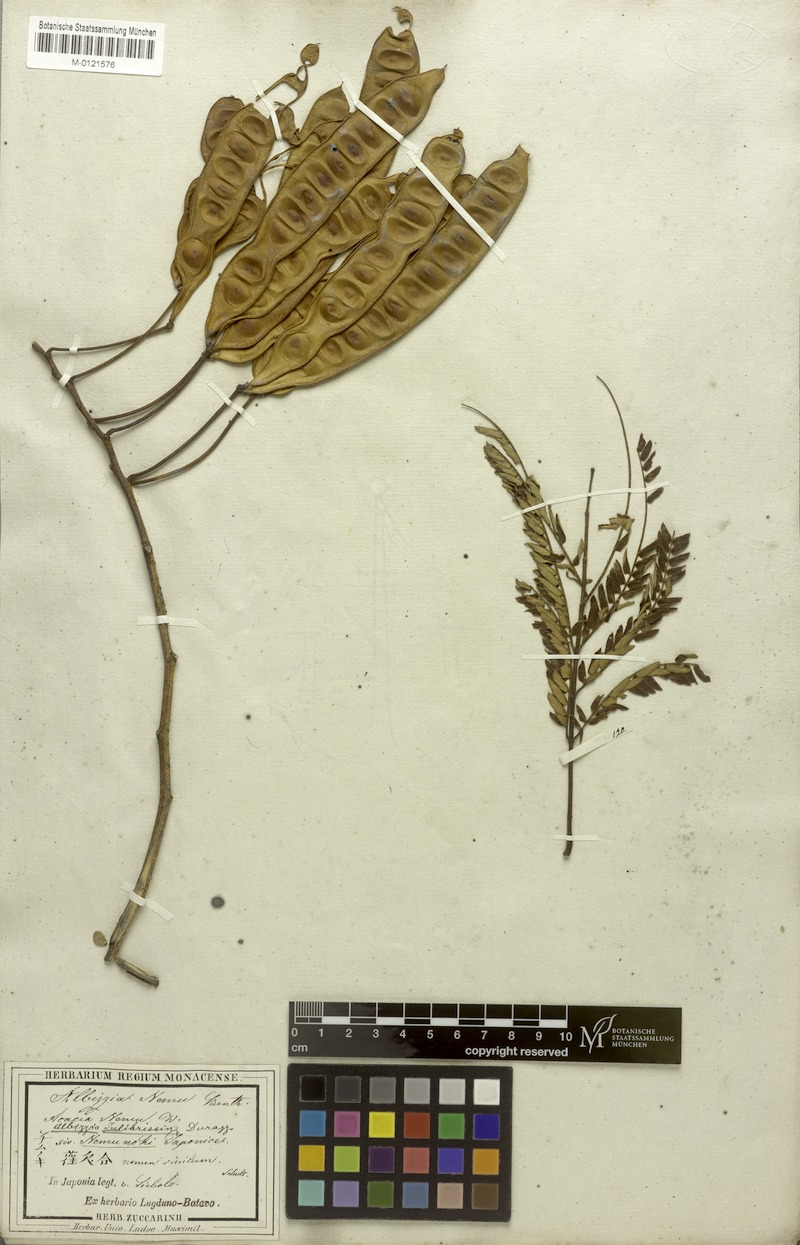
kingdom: Plantae
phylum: Tracheophyta
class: Magnoliopsida
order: Fabales
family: Fabaceae
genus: Albizia
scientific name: Albizia julibrissin
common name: Silktree
